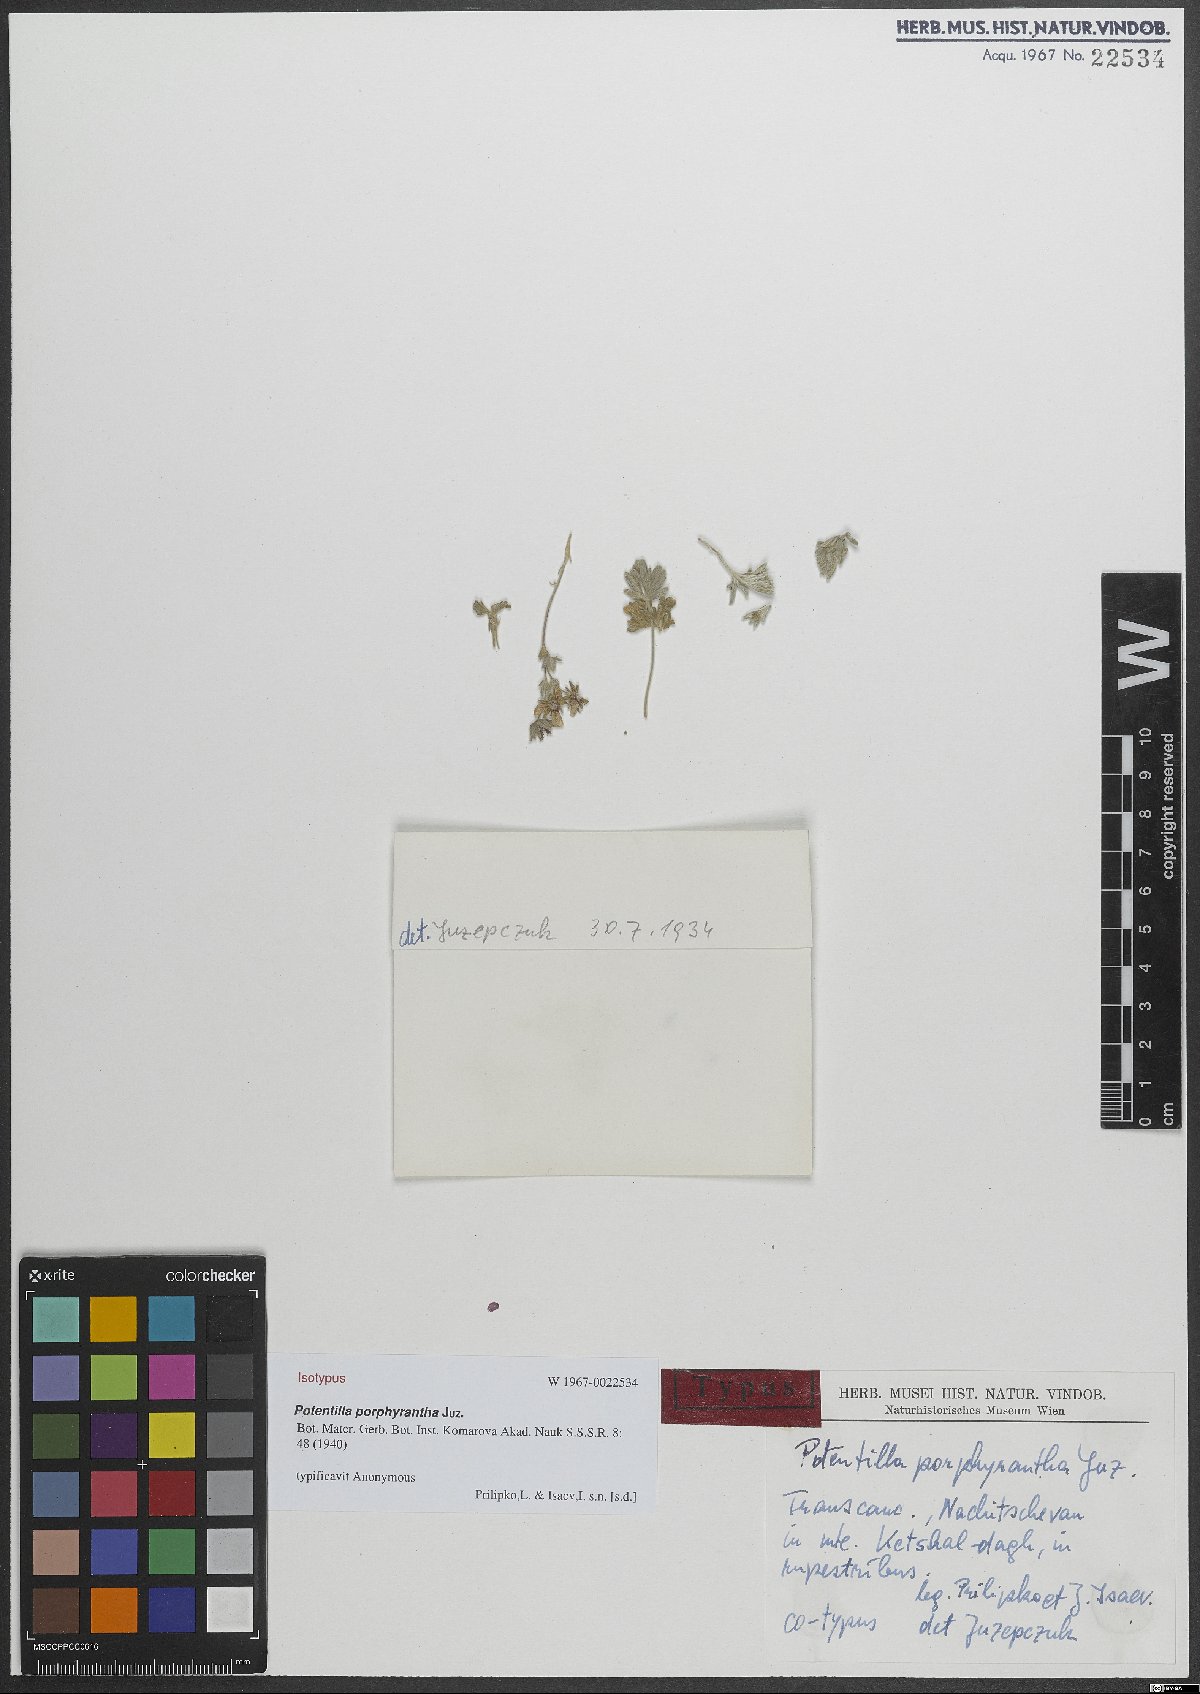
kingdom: Plantae
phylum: Tracheophyta
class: Magnoliopsida
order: Rosales
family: Rosaceae
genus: Potentilla
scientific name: Potentilla porphyrantha
